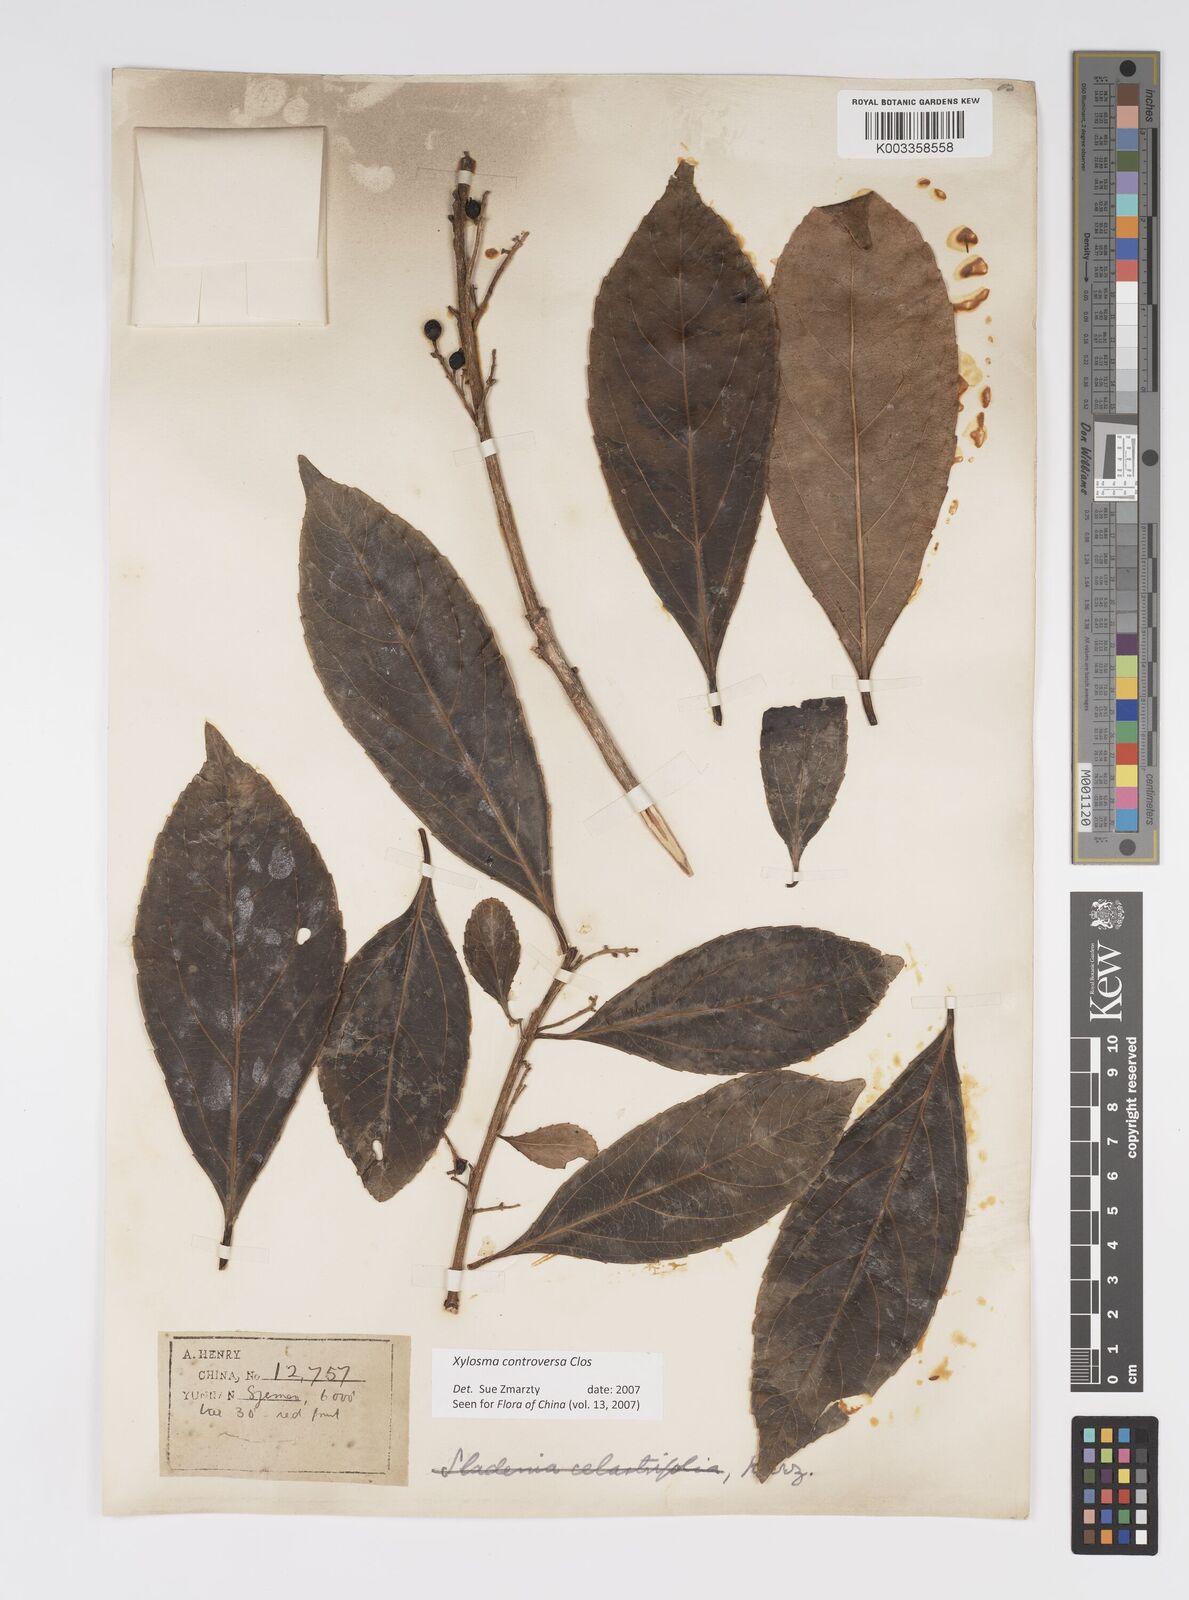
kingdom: Plantae
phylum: Tracheophyta
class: Magnoliopsida
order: Malpighiales
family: Salicaceae
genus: Xylosma
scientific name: Xylosma controversa
